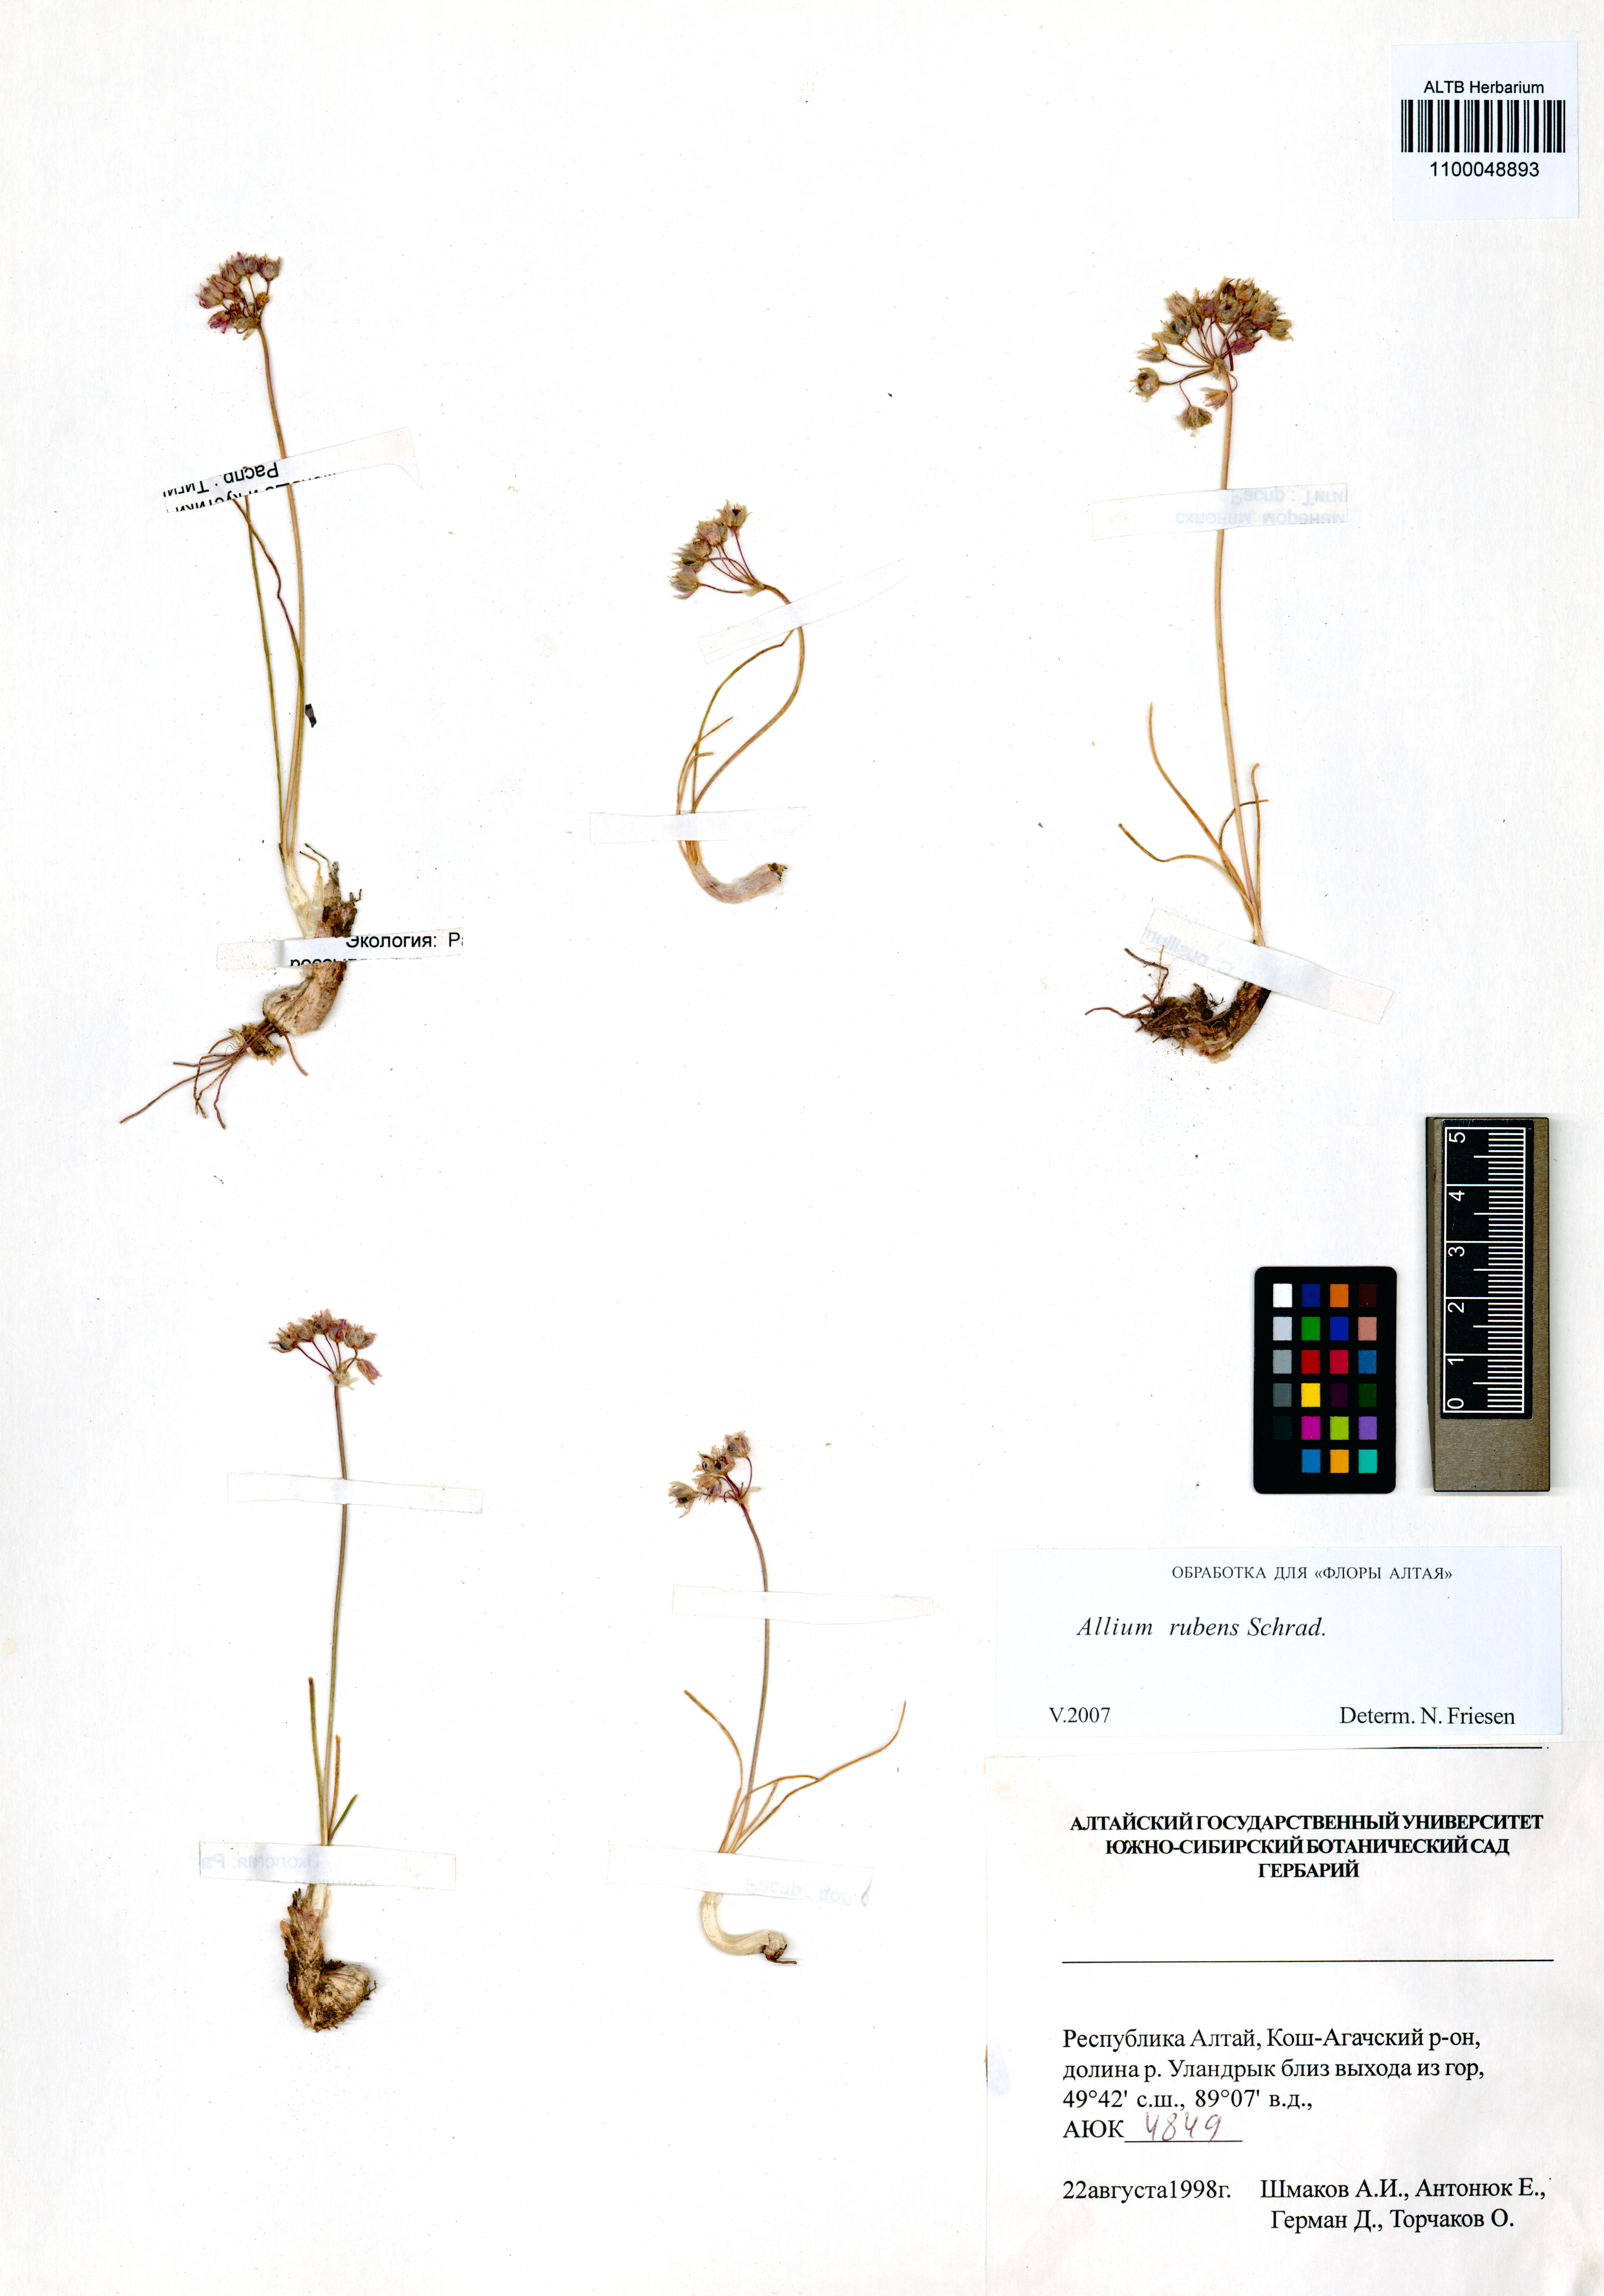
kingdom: Plantae
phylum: Tracheophyta
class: Liliopsida
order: Asparagales
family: Amaryllidaceae
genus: Allium
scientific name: Allium rubens
